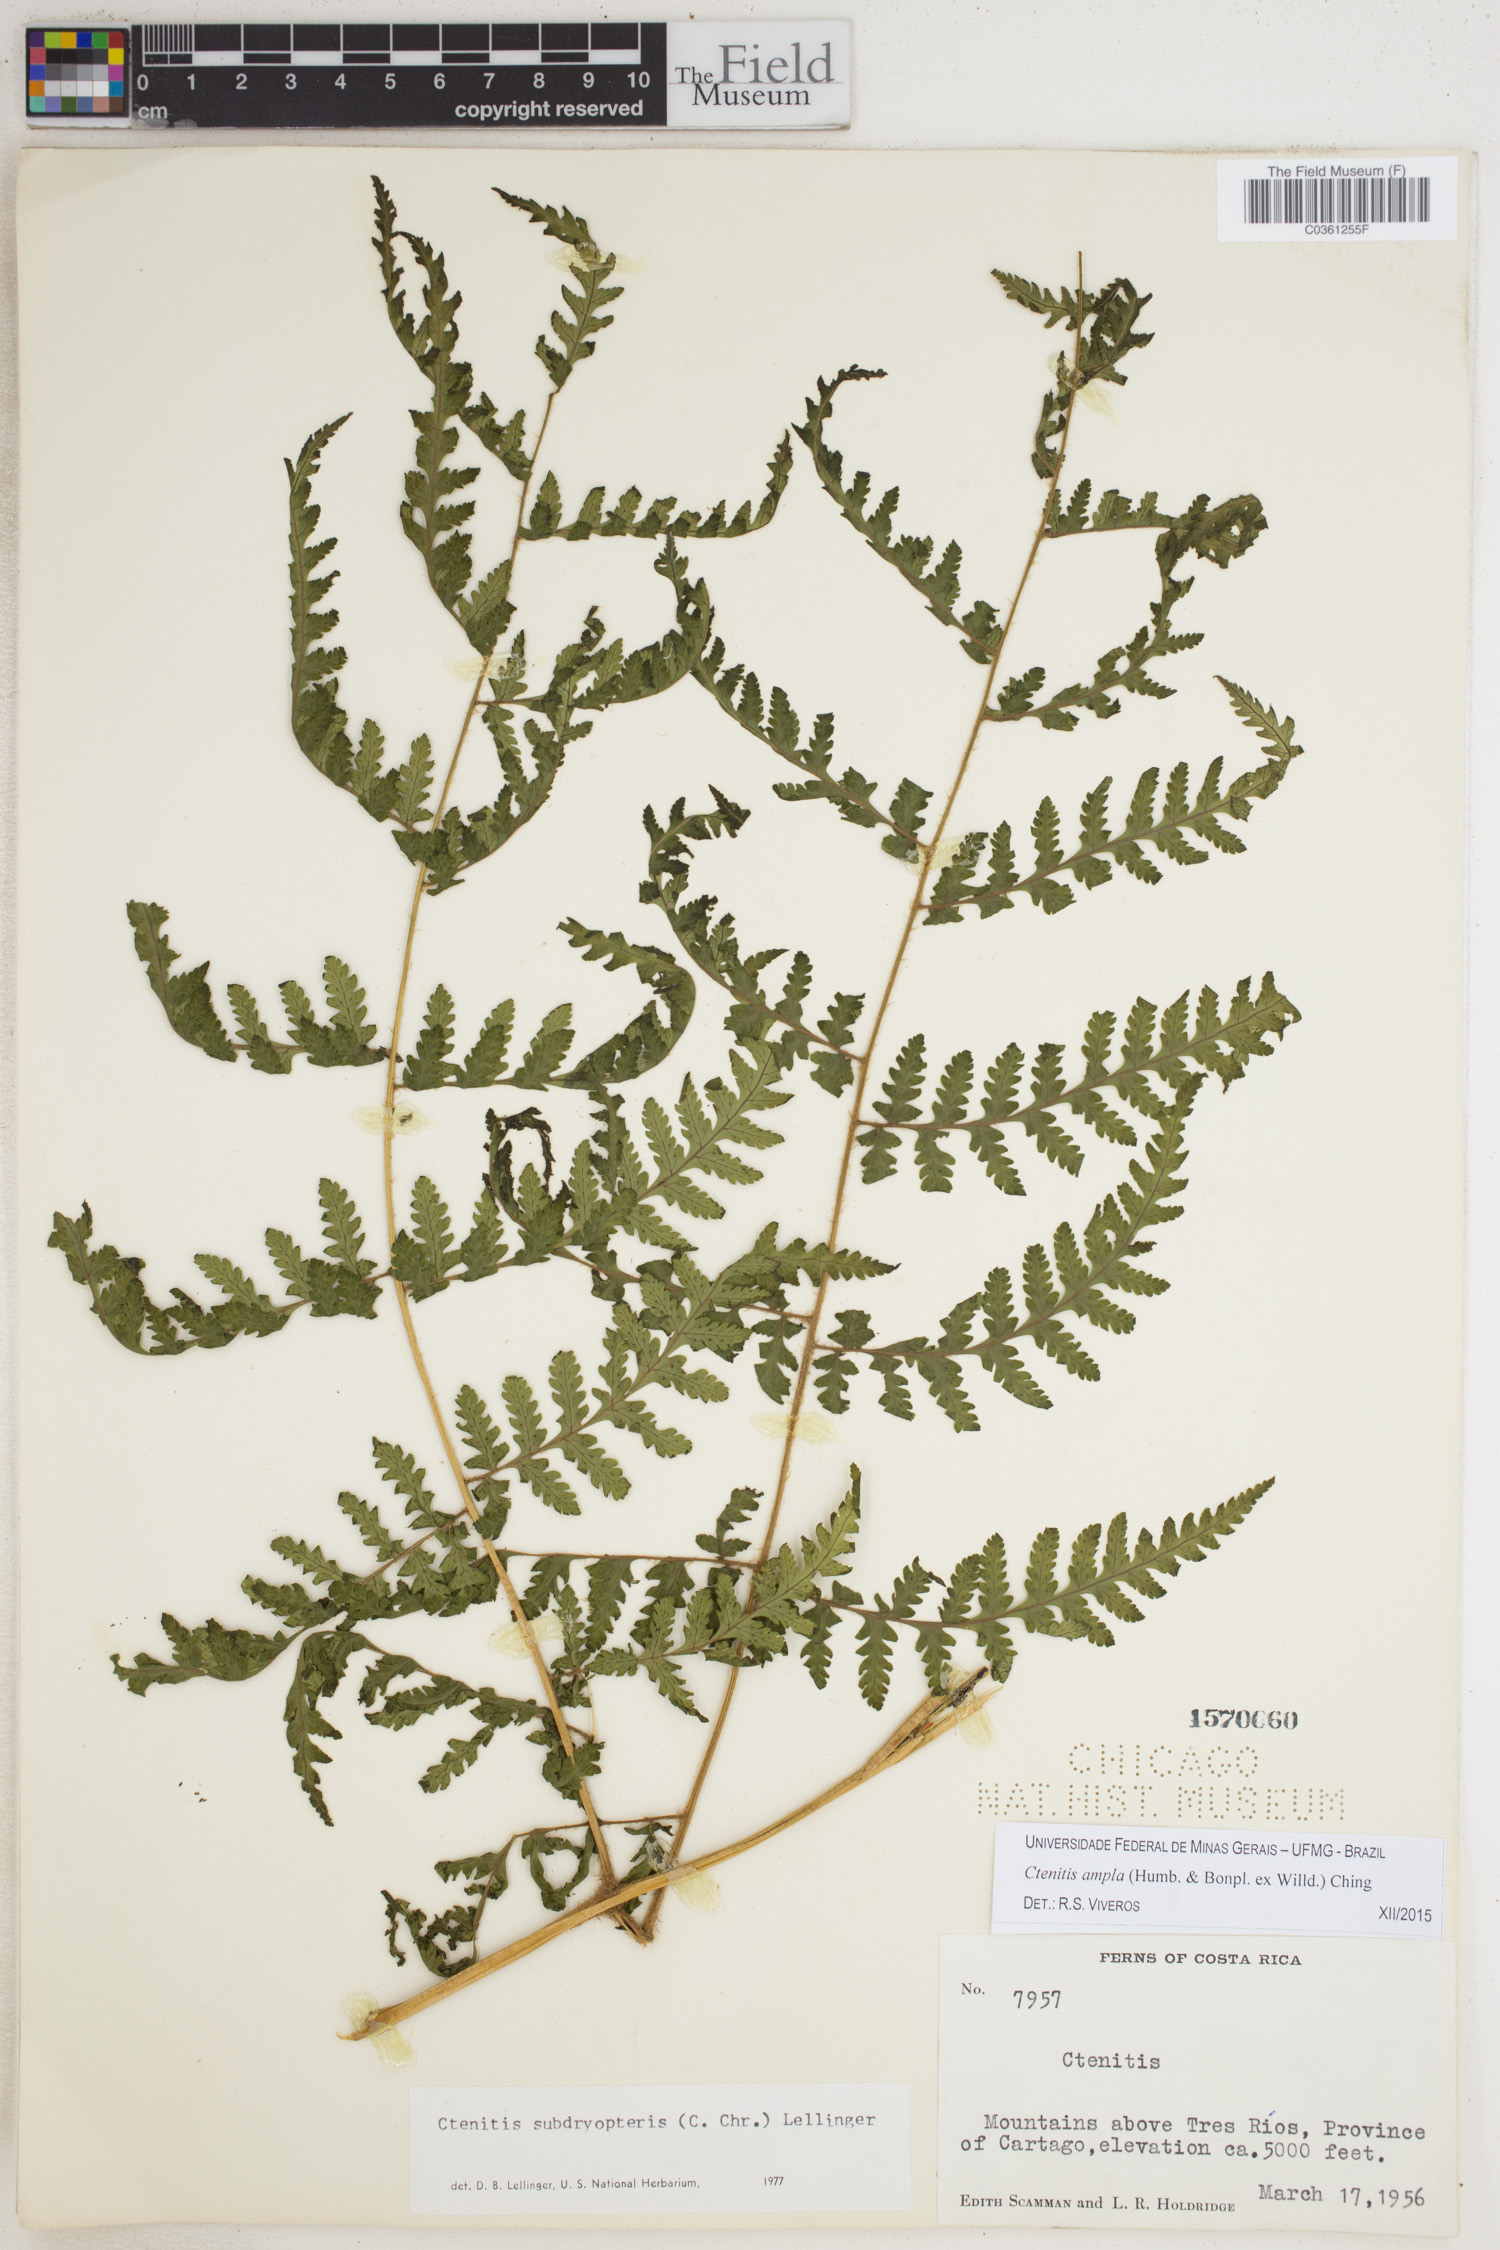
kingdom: Plantae
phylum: Tracheophyta
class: Polypodiopsida
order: Polypodiales
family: Dryopteridaceae
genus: Ctenitis
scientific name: Ctenitis sloanei
